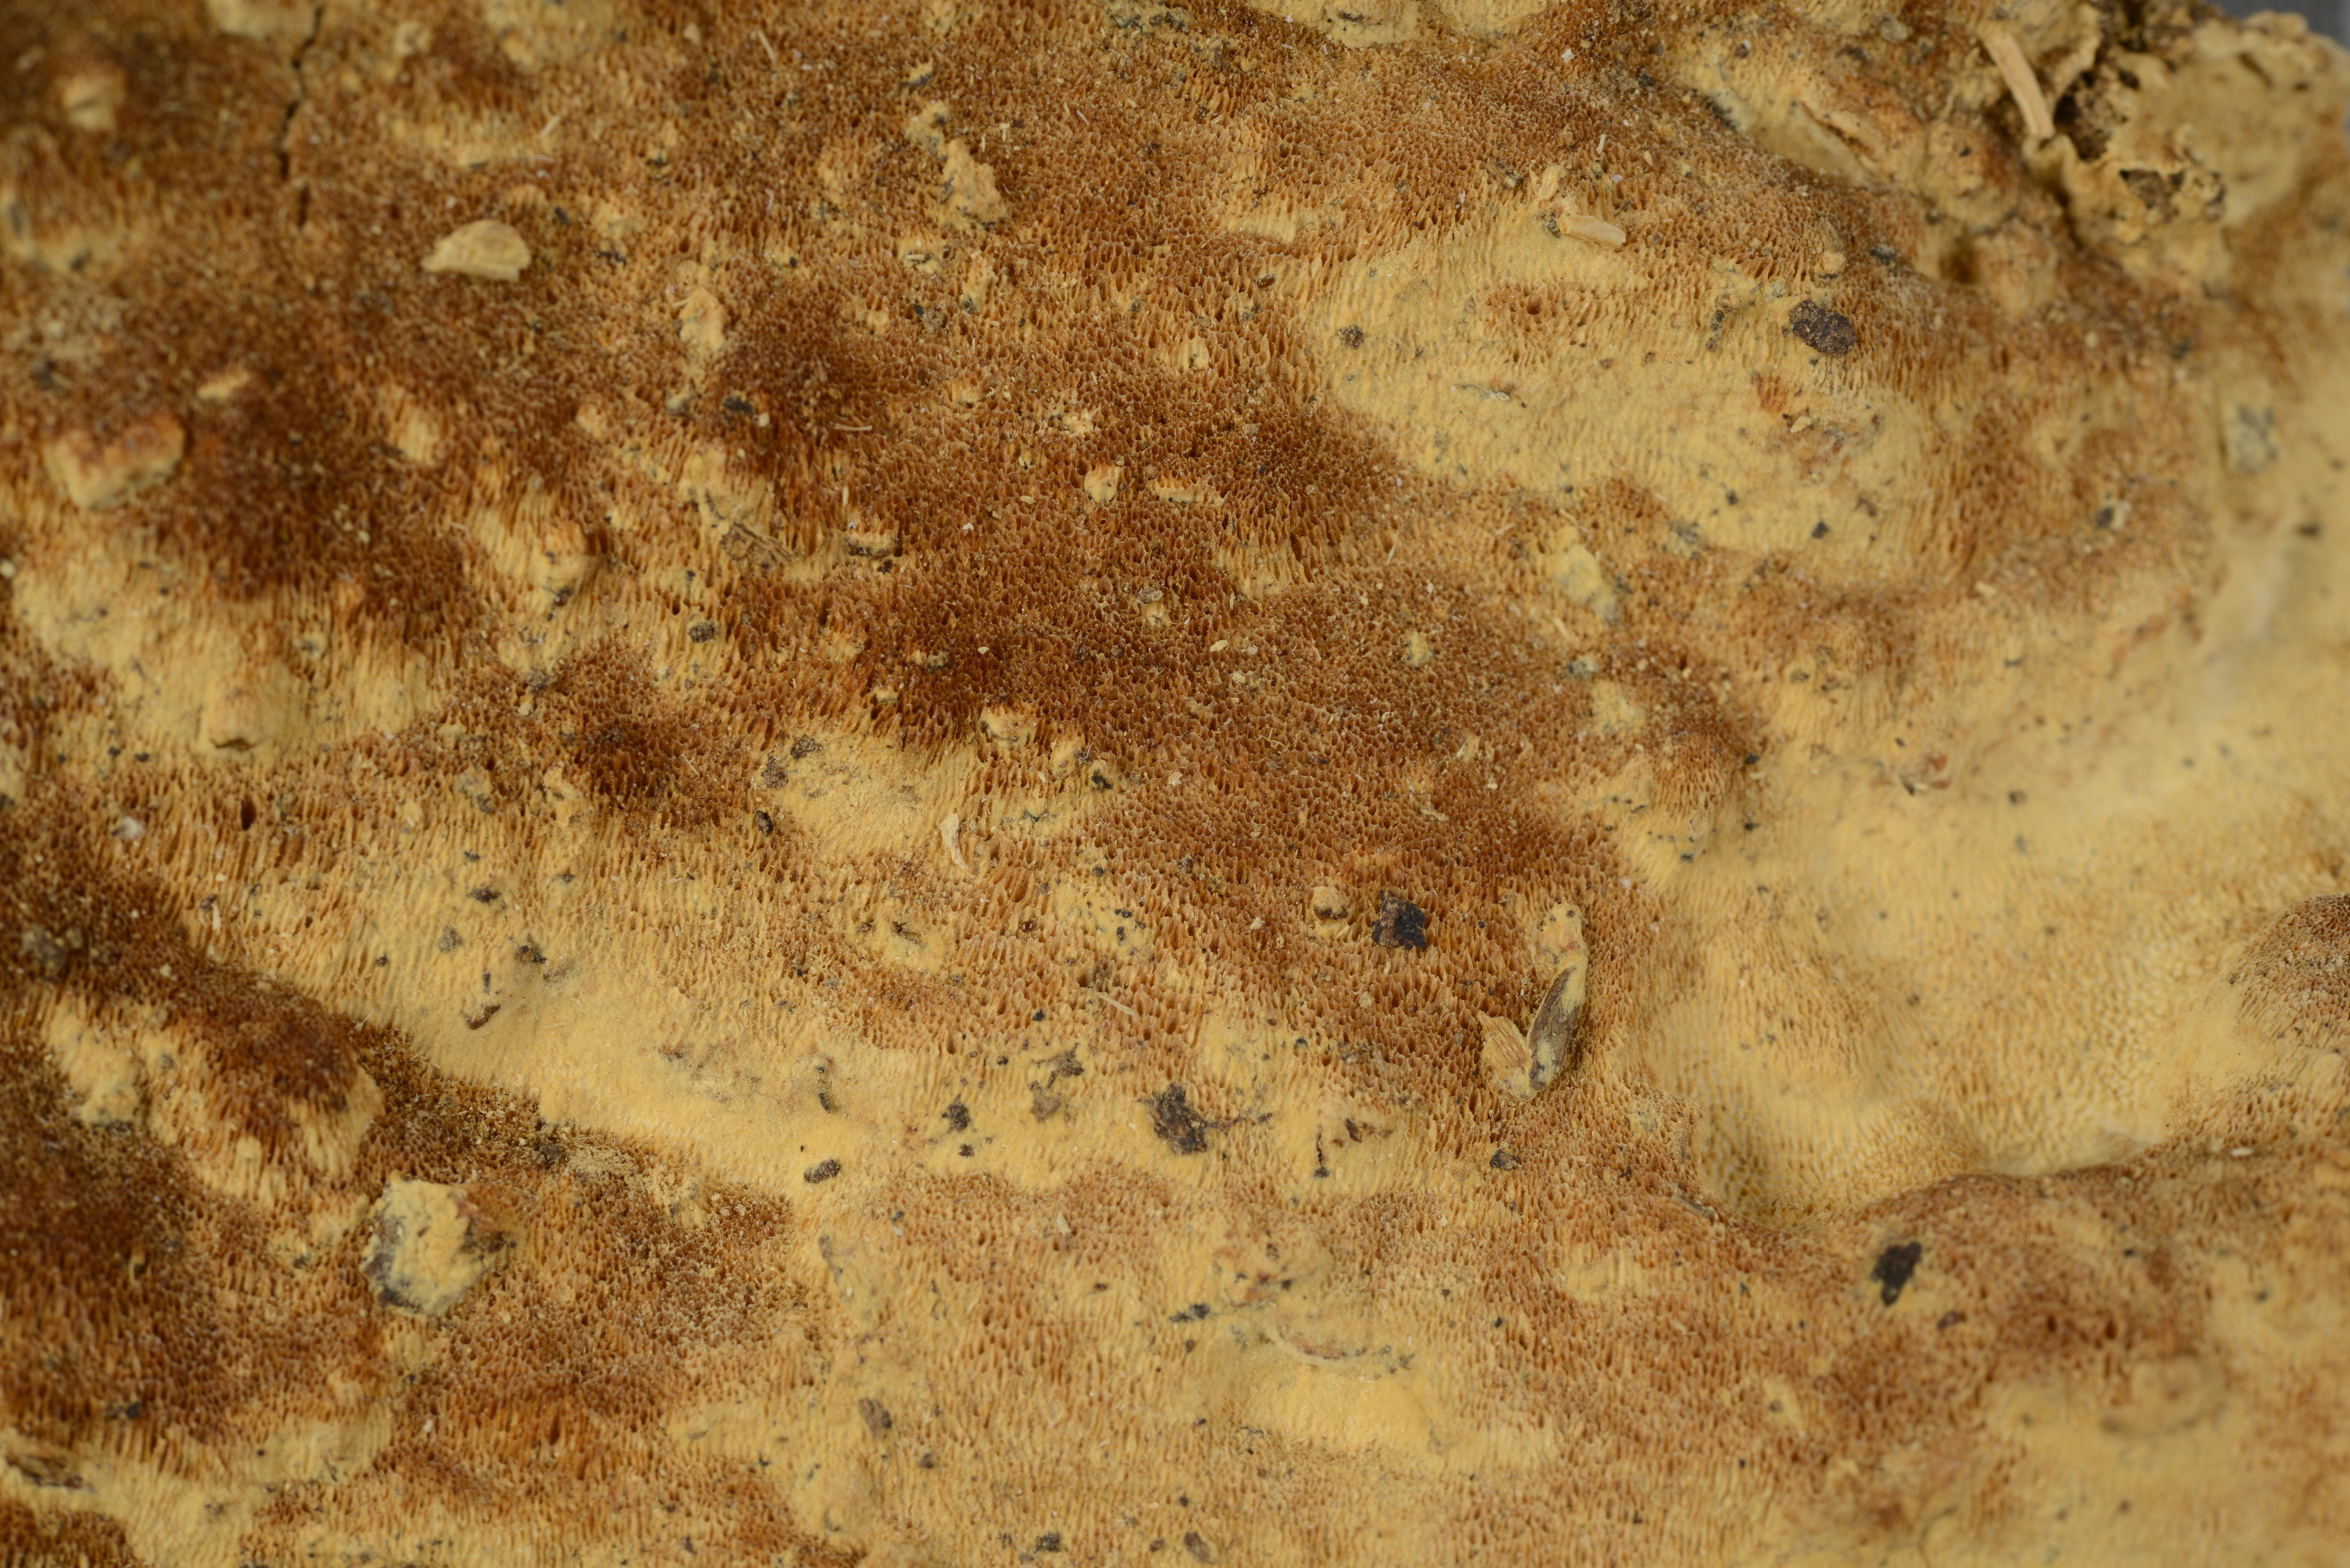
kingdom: Fungi
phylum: Basidiomycota
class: Agaricomycetes
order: Russulales
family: Hericiaceae
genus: Pseudowrightoporia
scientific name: Pseudowrightoporia cylindrospora
